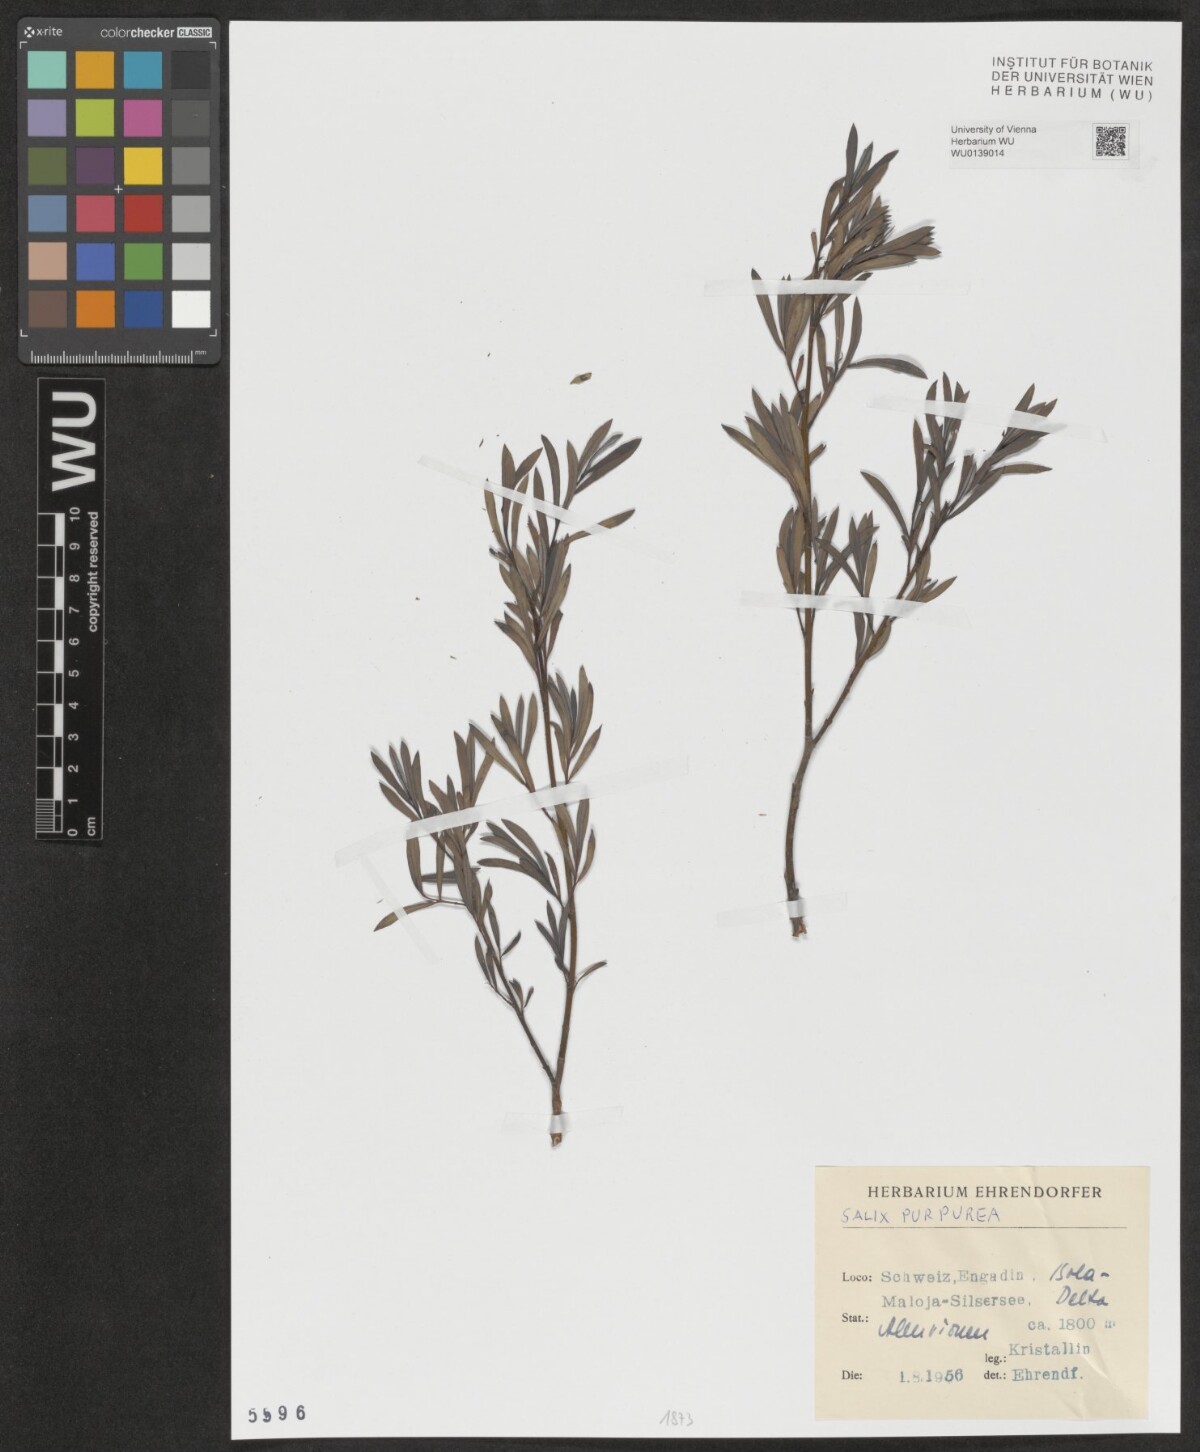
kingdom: Plantae
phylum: Tracheophyta
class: Magnoliopsida
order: Malpighiales
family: Salicaceae
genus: Salix
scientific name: Salix purpurea
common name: Purple willow
